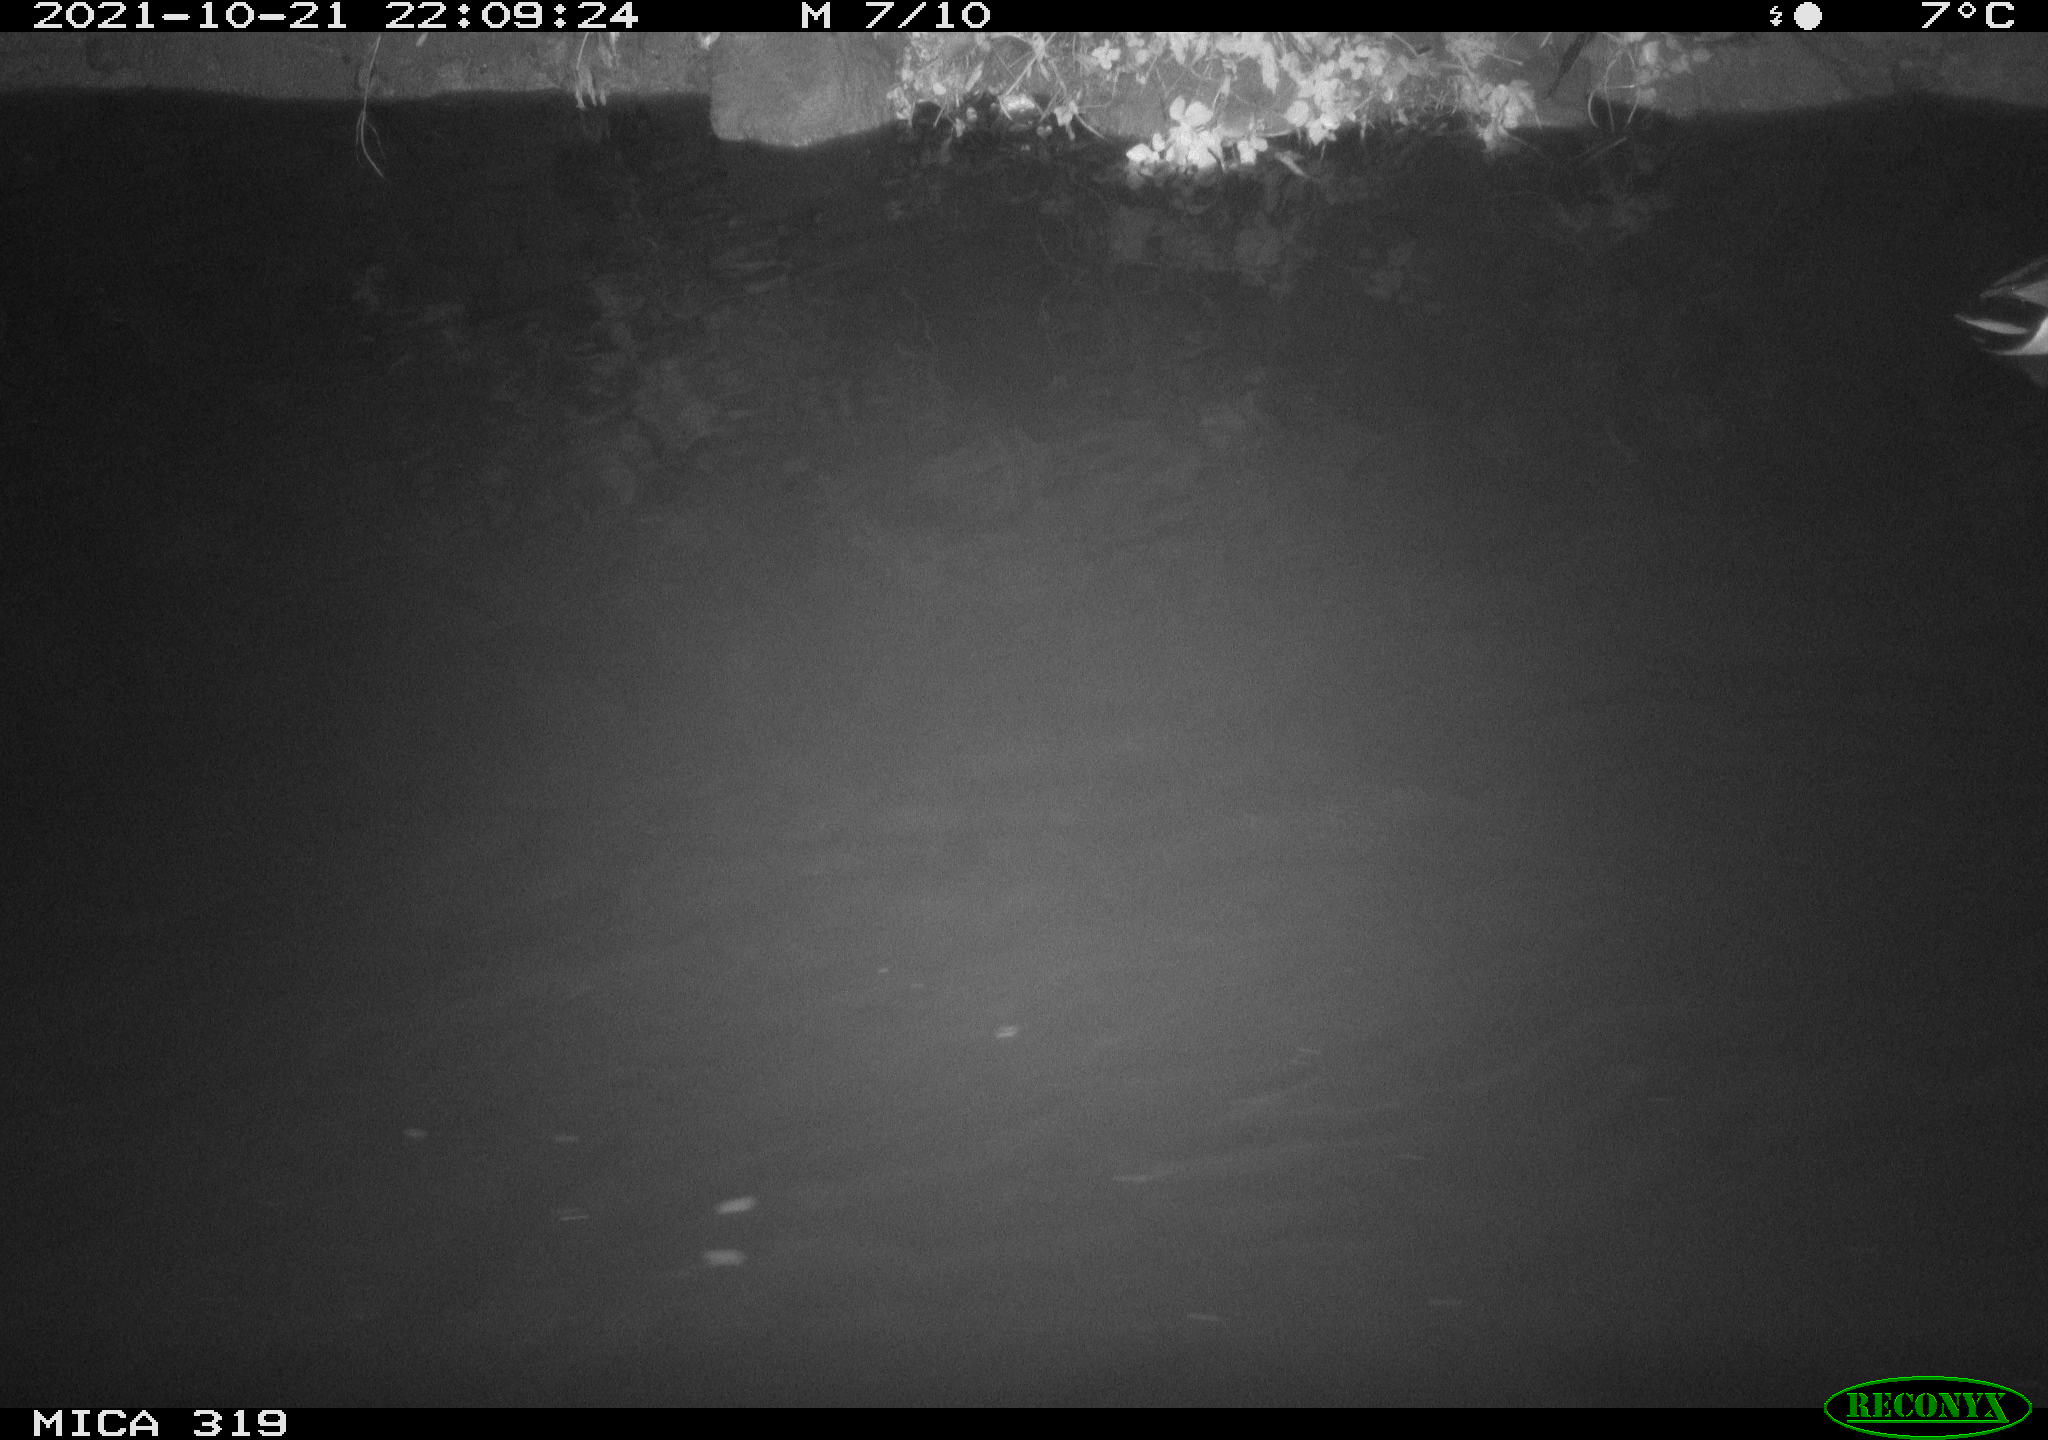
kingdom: Animalia
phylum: Chordata
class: Aves
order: Anseriformes
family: Anatidae
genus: Anas
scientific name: Anas platyrhynchos
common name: Mallard
